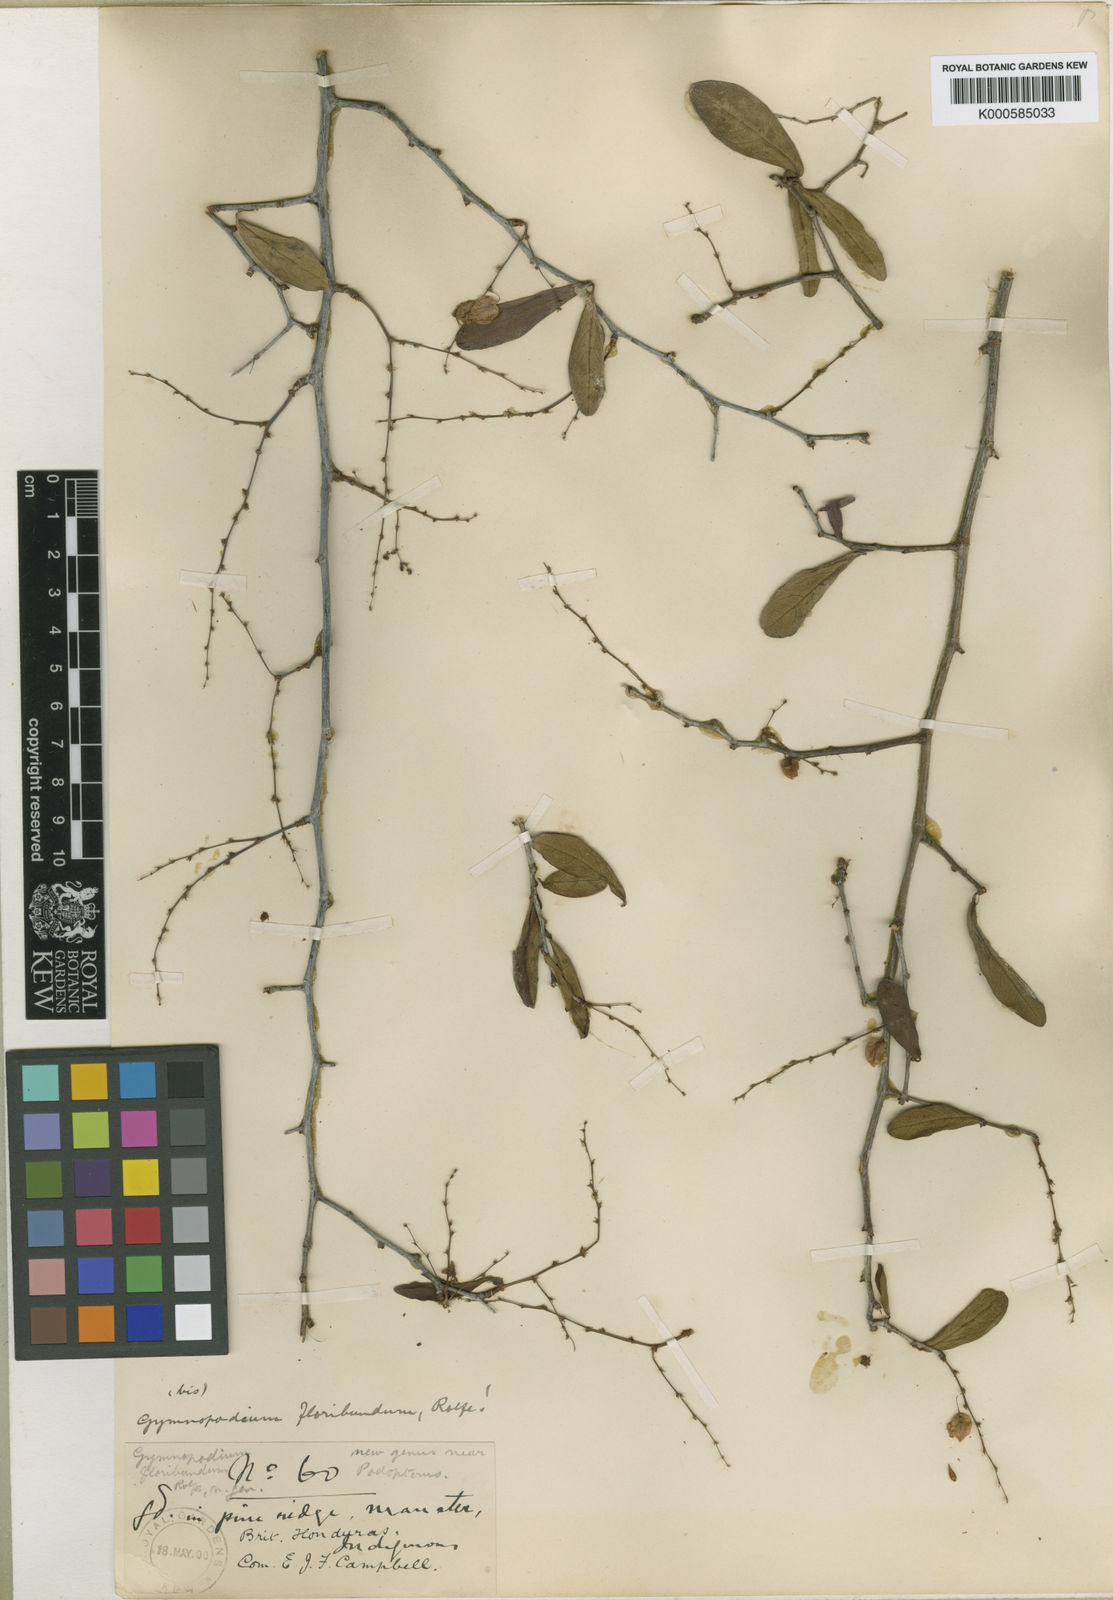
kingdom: Plantae
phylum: Tracheophyta
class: Magnoliopsida
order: Caryophyllales
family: Polygonaceae
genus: Gymnopodium
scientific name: Gymnopodium floribundum
